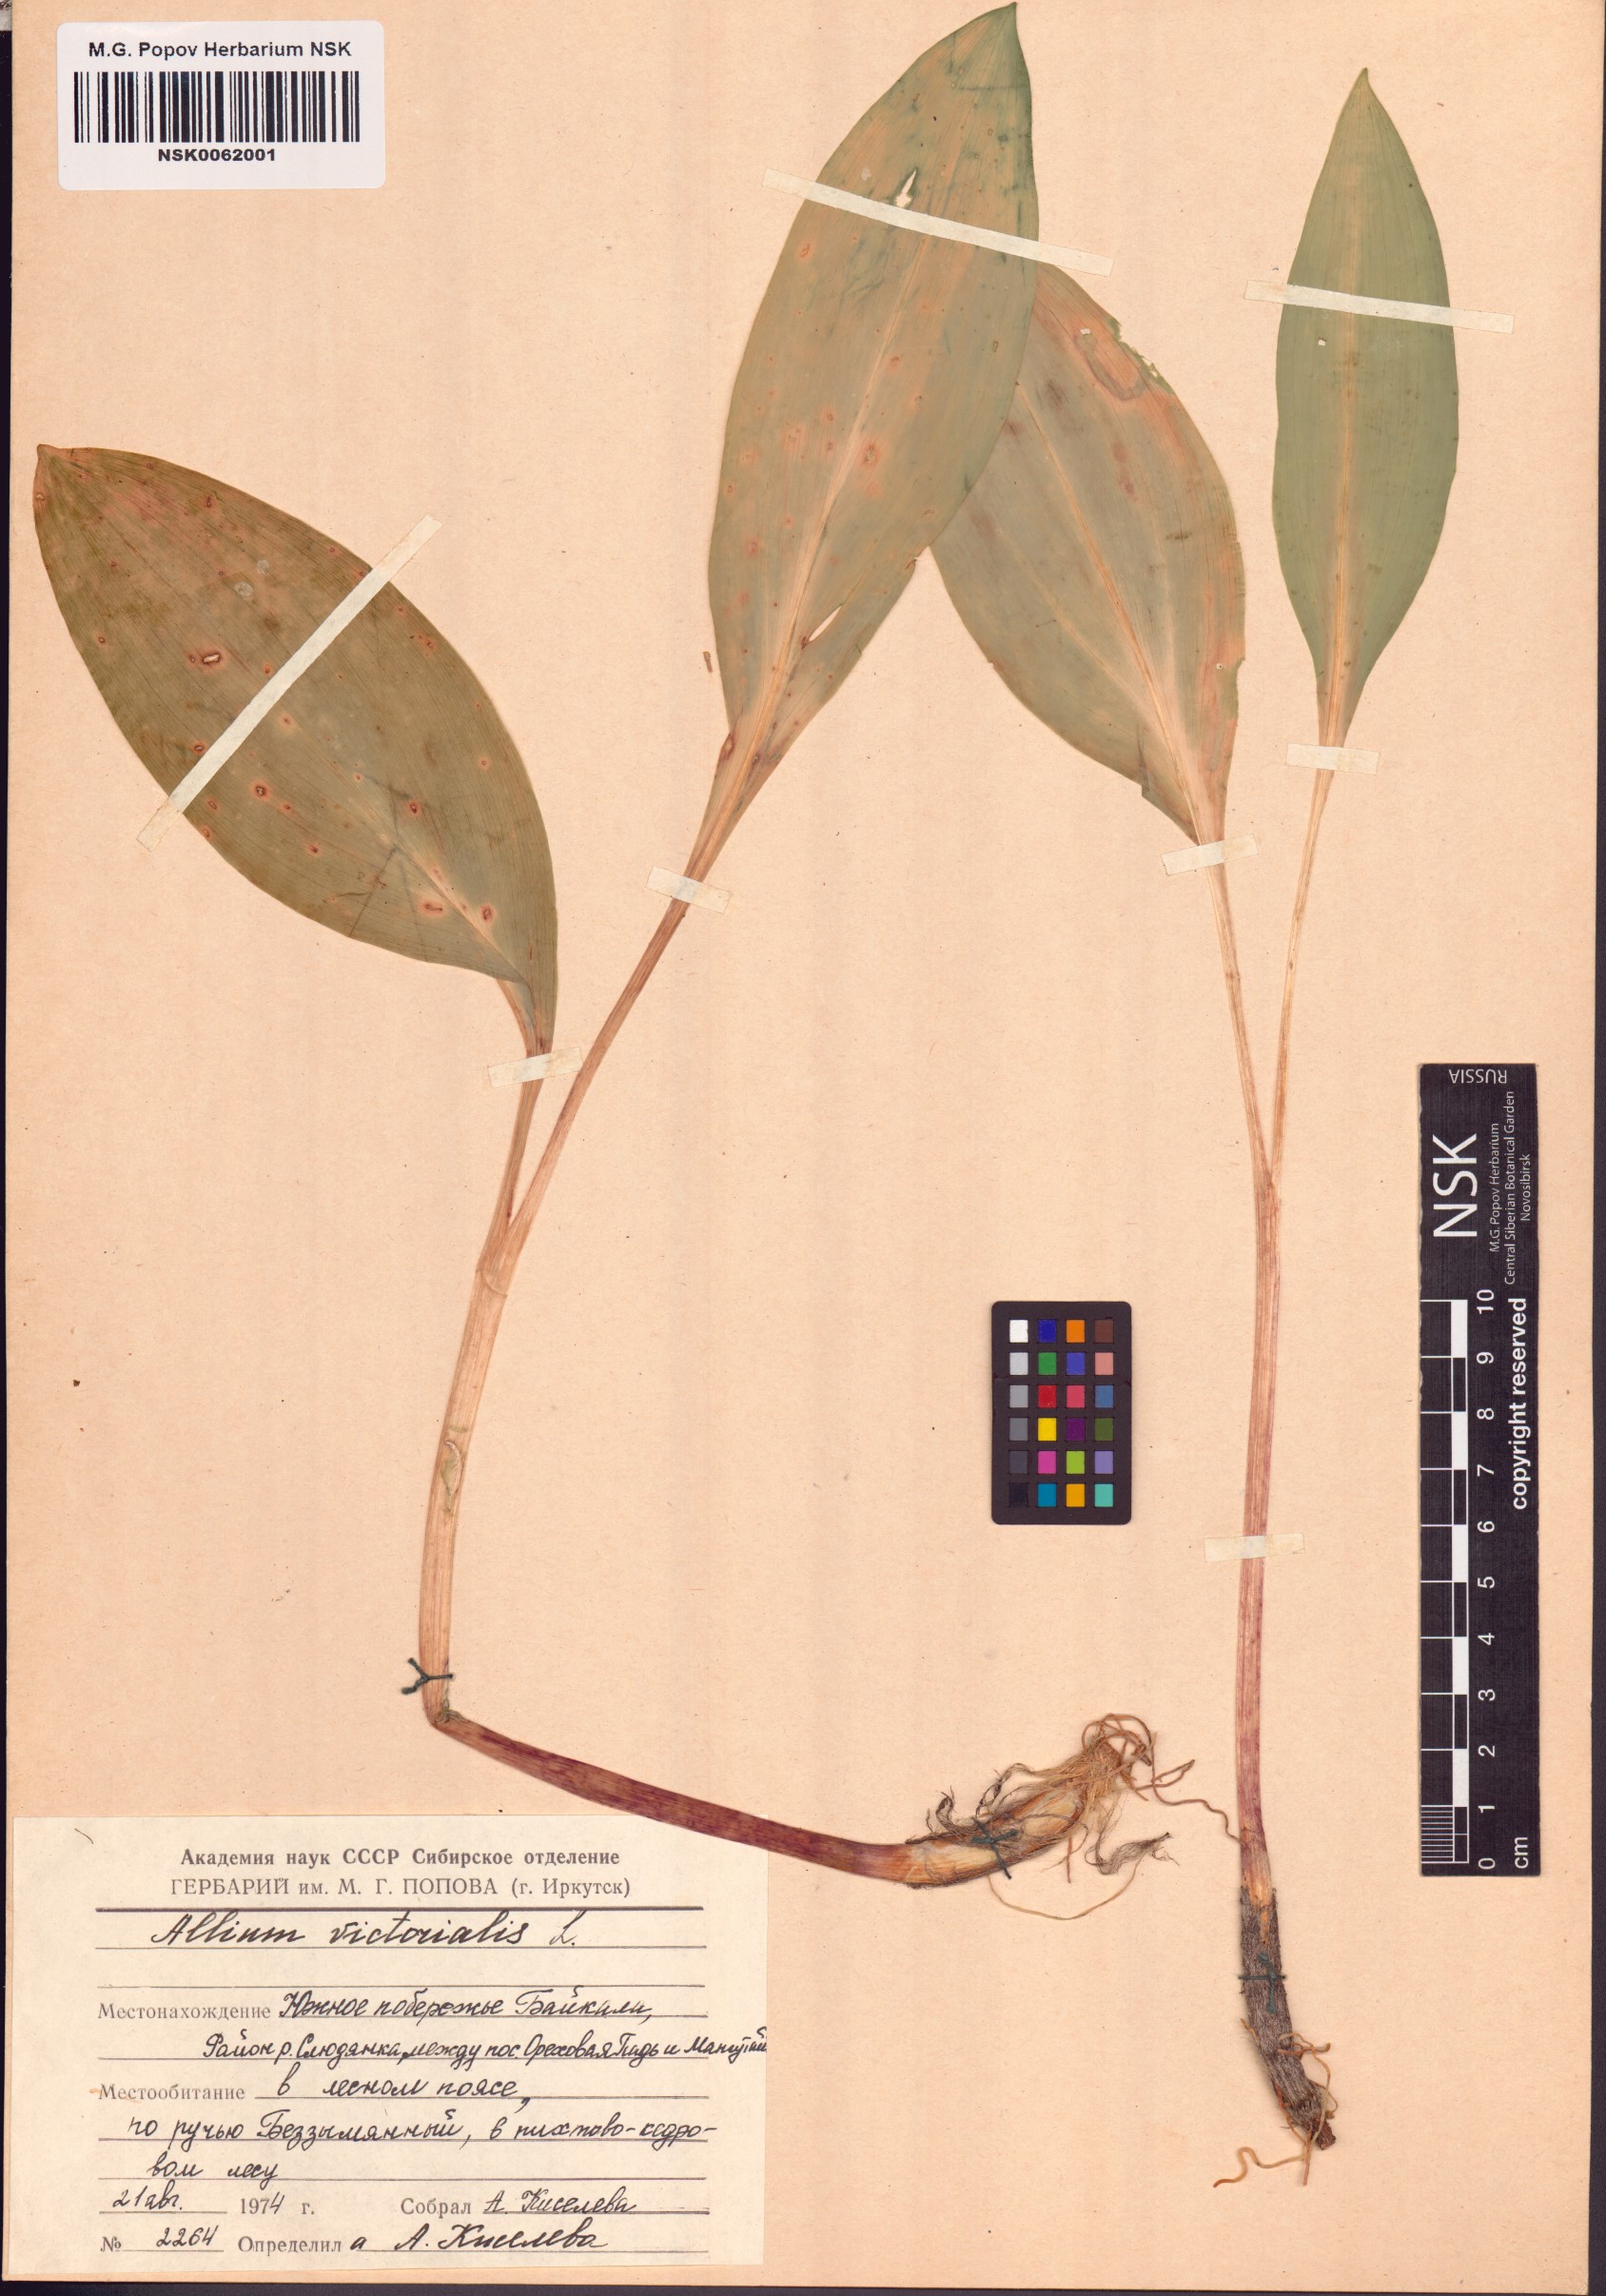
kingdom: Plantae
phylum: Tracheophyta
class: Liliopsida
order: Asparagales
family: Amaryllidaceae
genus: Allium
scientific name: Allium victorialis
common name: Alpine leek
